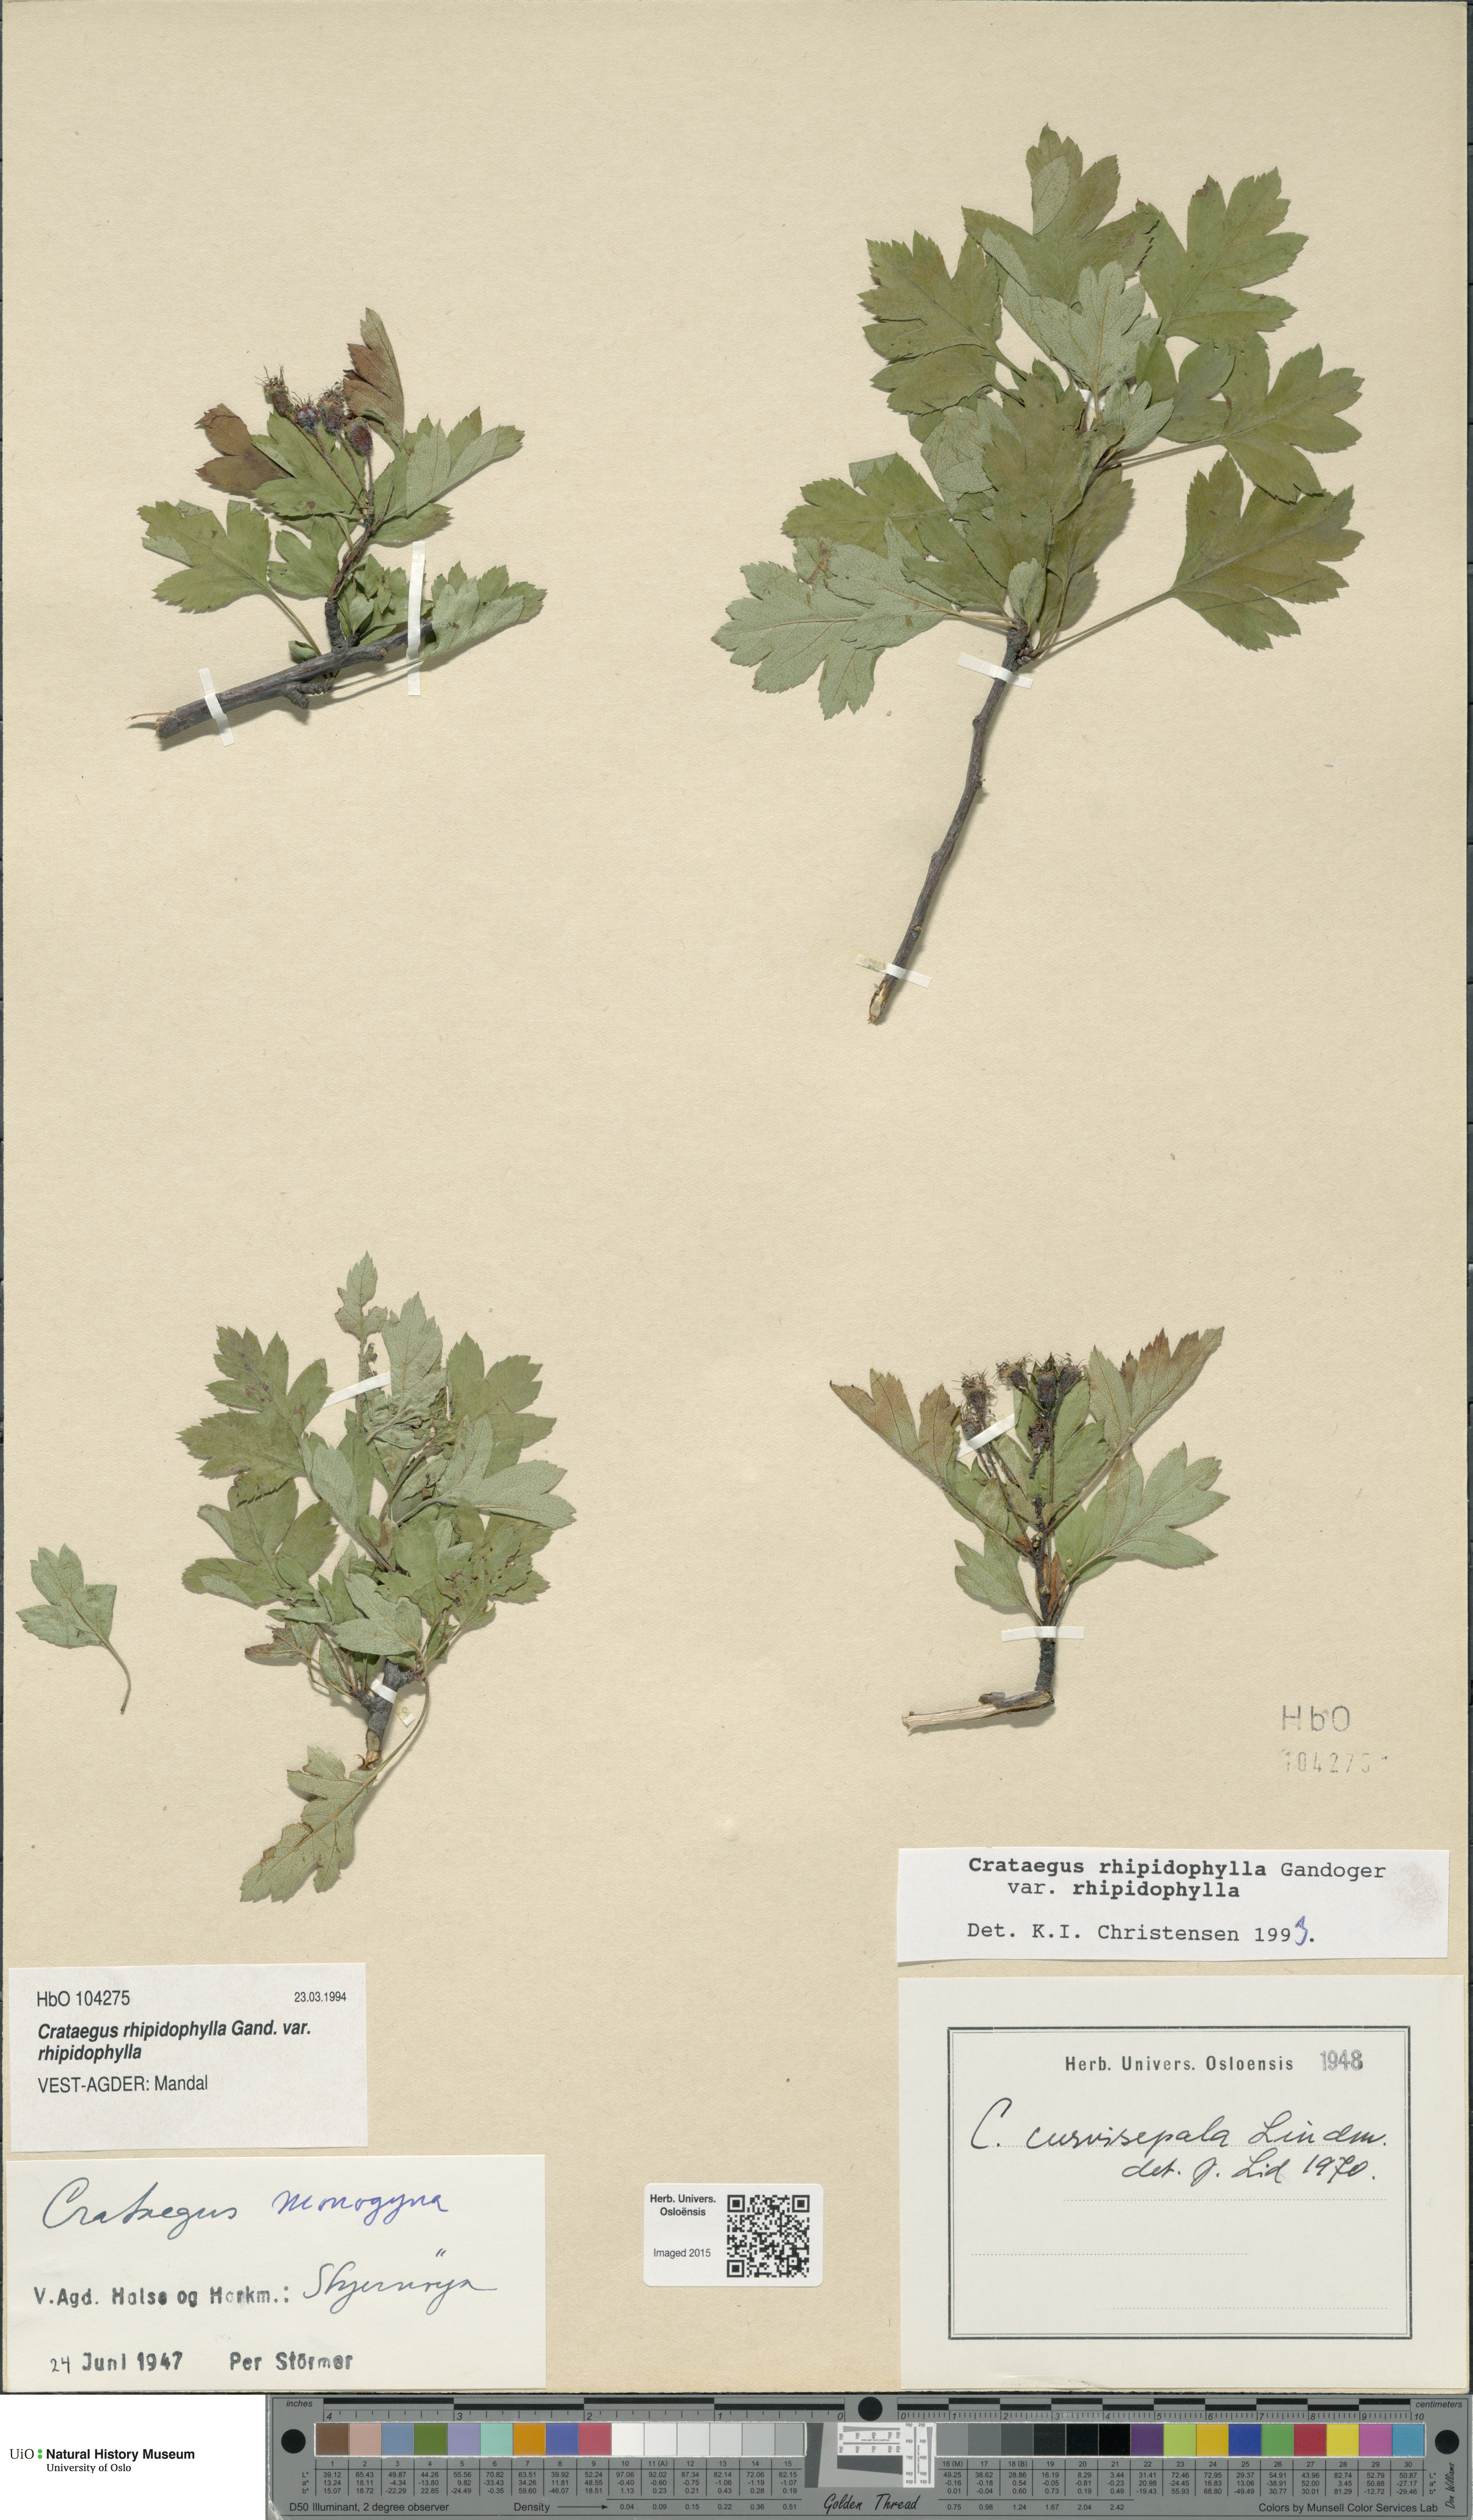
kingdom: Plantae
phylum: Tracheophyta
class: Magnoliopsida
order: Rosales
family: Rosaceae
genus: Crataegus
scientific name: Crataegus rhipidophylla
